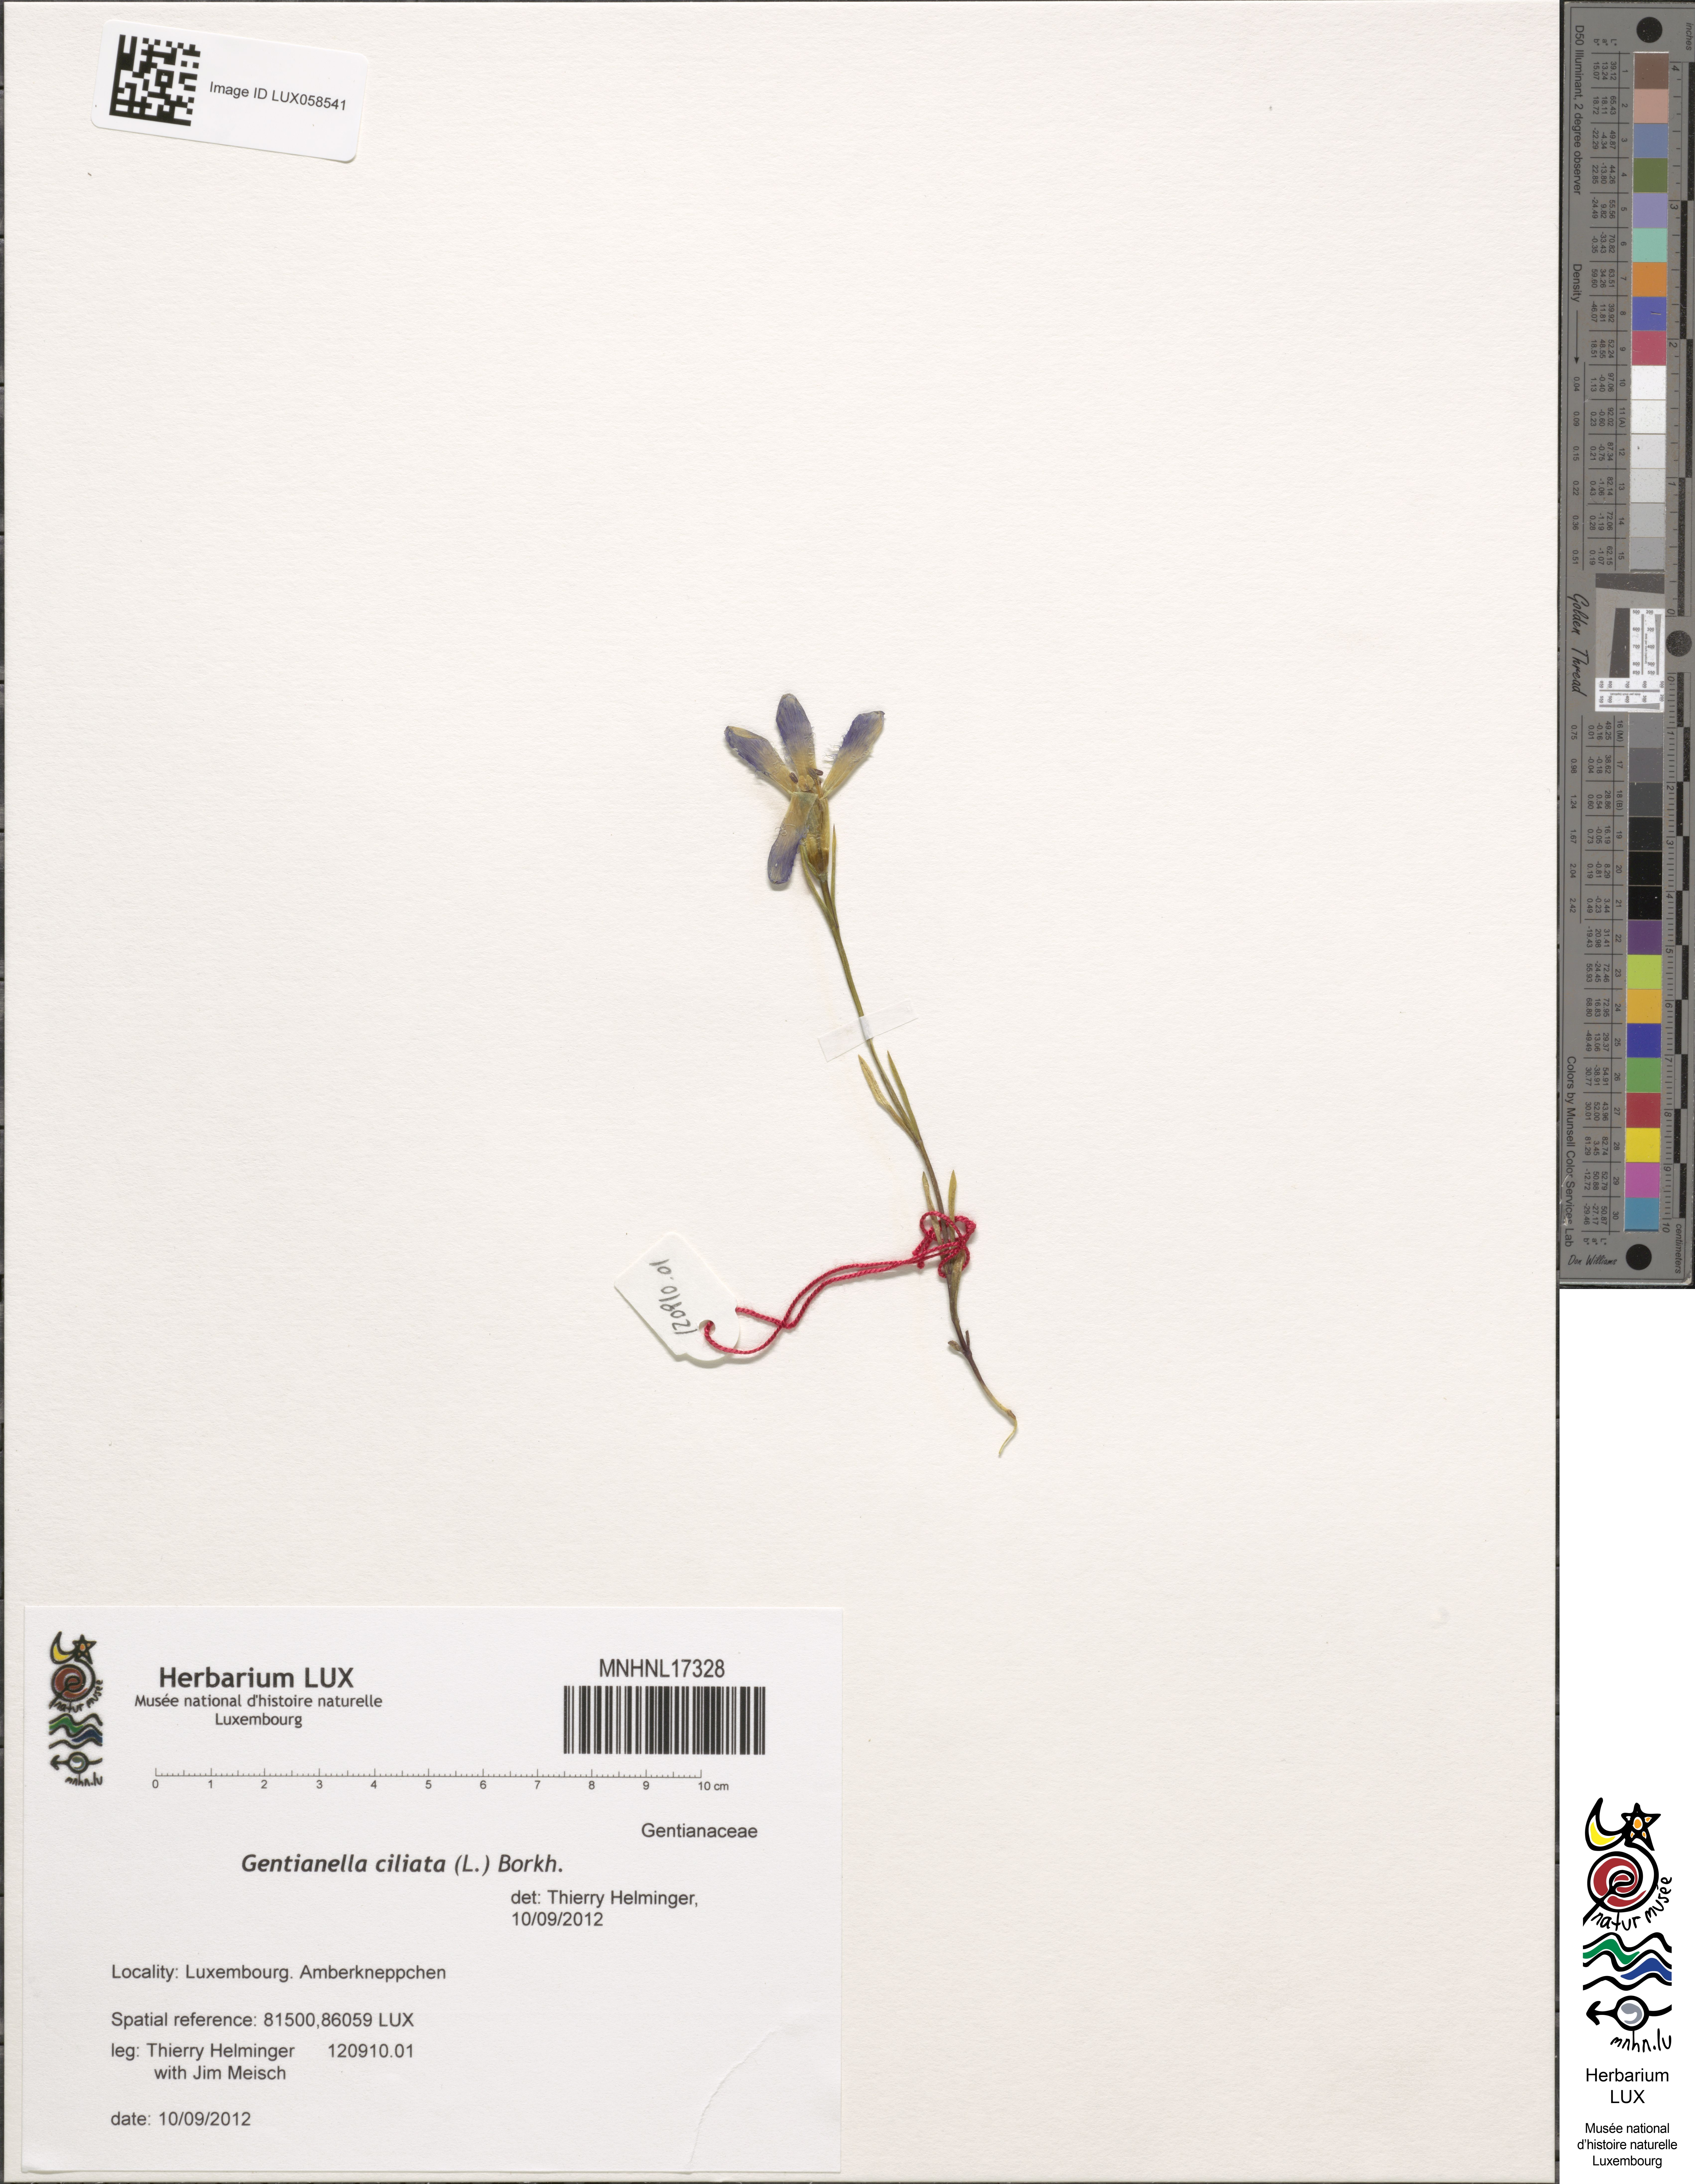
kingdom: Plantae
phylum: Tracheophyta
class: Magnoliopsida
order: Gentianales
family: Gentianaceae
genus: Gentianopsis
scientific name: Gentianopsis ciliata
